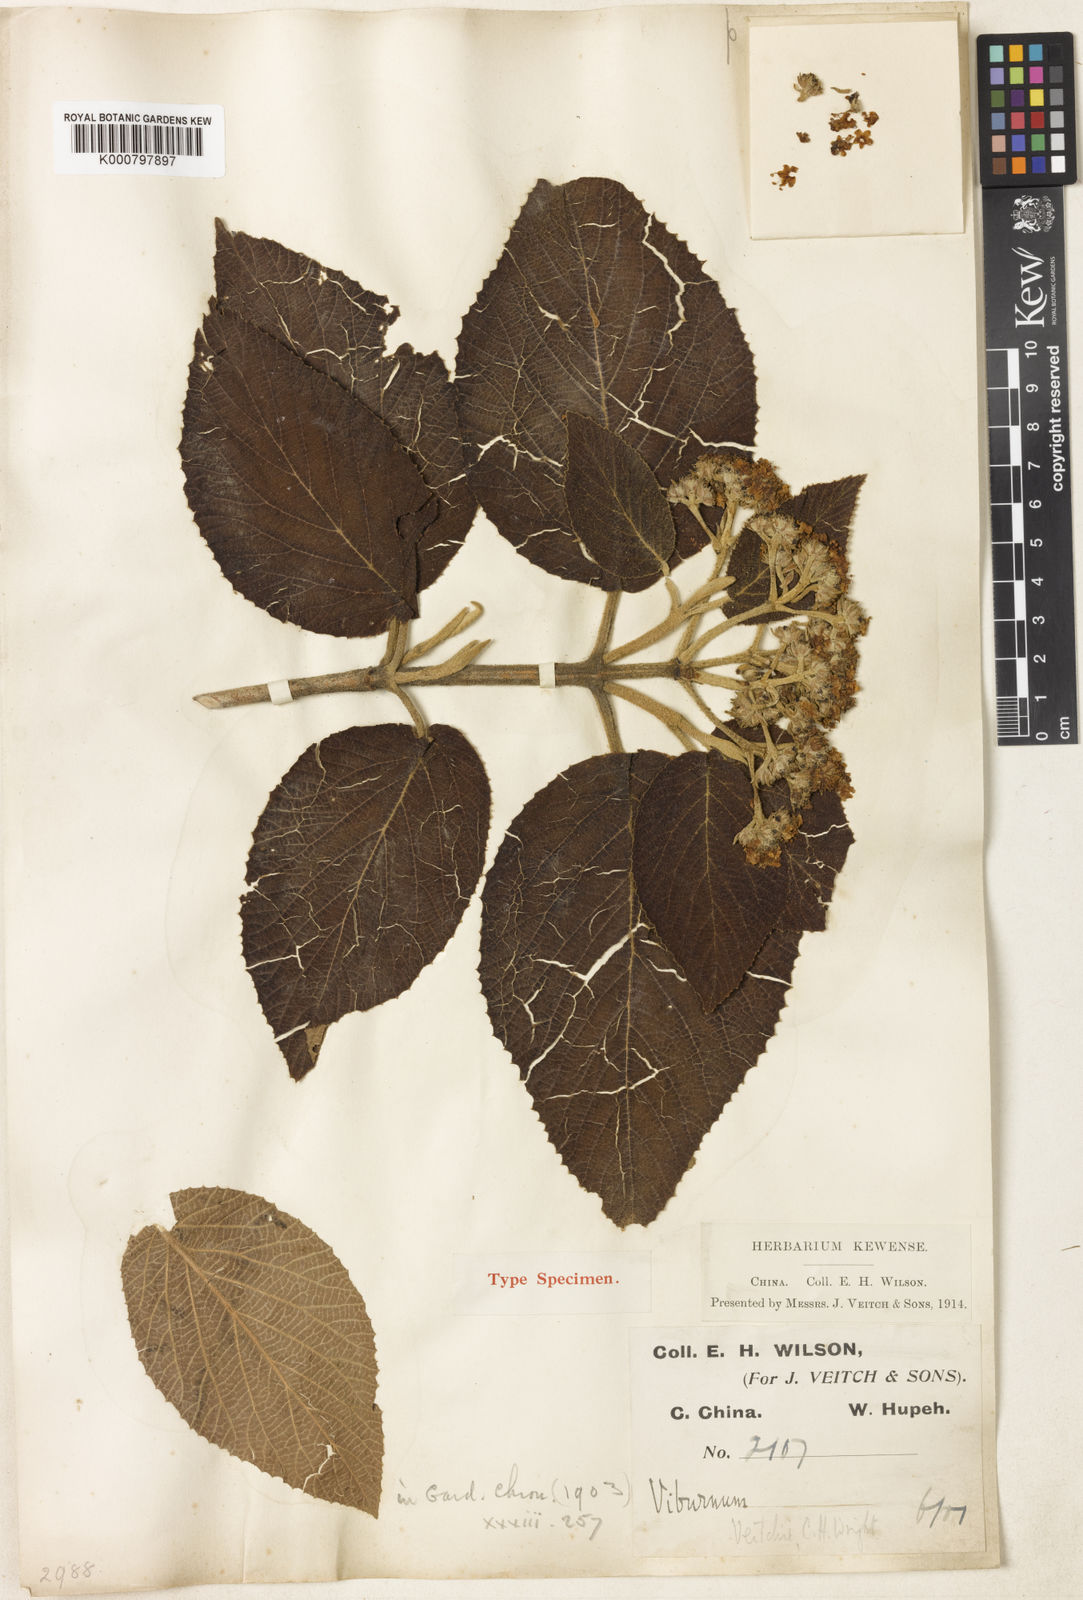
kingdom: Plantae
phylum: Tracheophyta
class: Magnoliopsida
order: Dipsacales
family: Viburnaceae
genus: Viburnum
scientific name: Viburnum glomeratum
